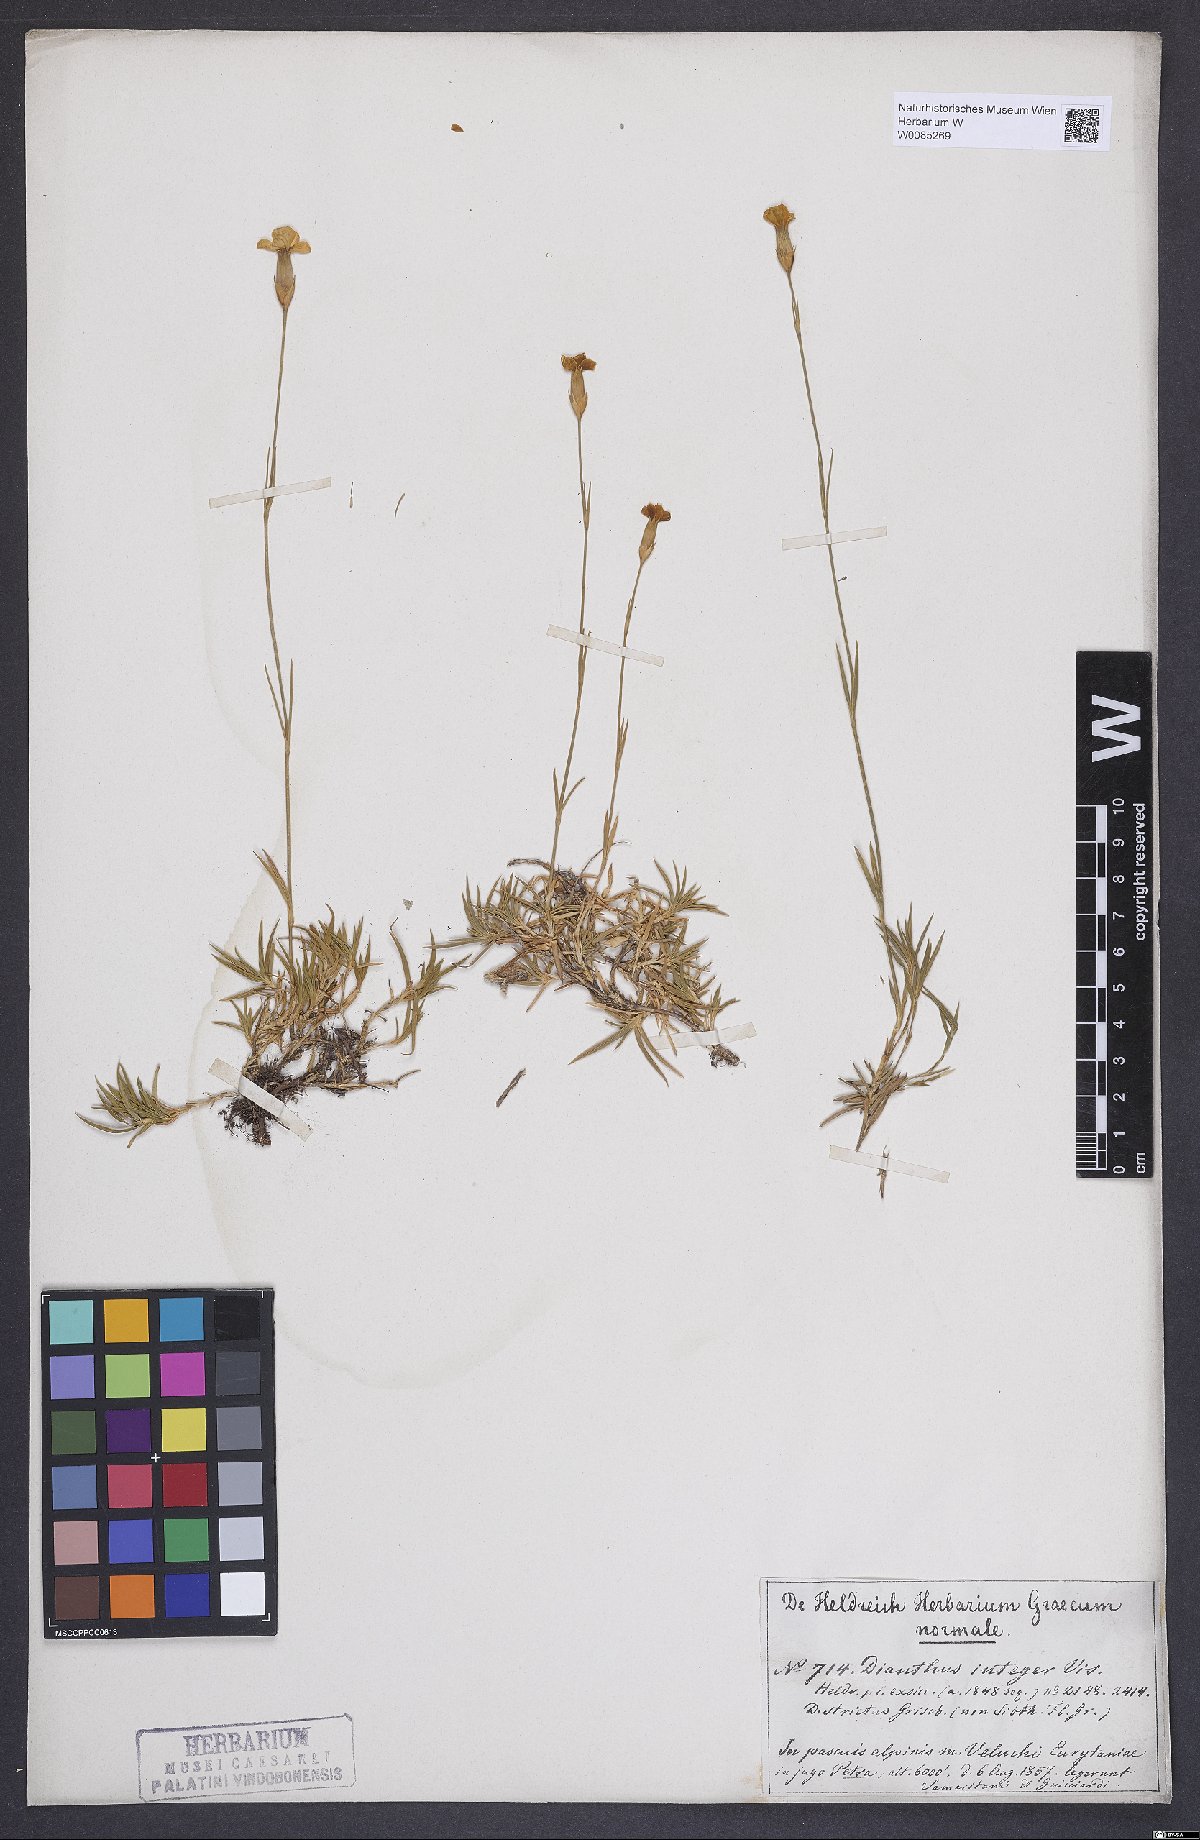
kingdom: Plantae
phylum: Tracheophyta
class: Magnoliopsida
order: Caryophyllales
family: Caryophyllaceae
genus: Dianthus
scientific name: Dianthus petraeus
